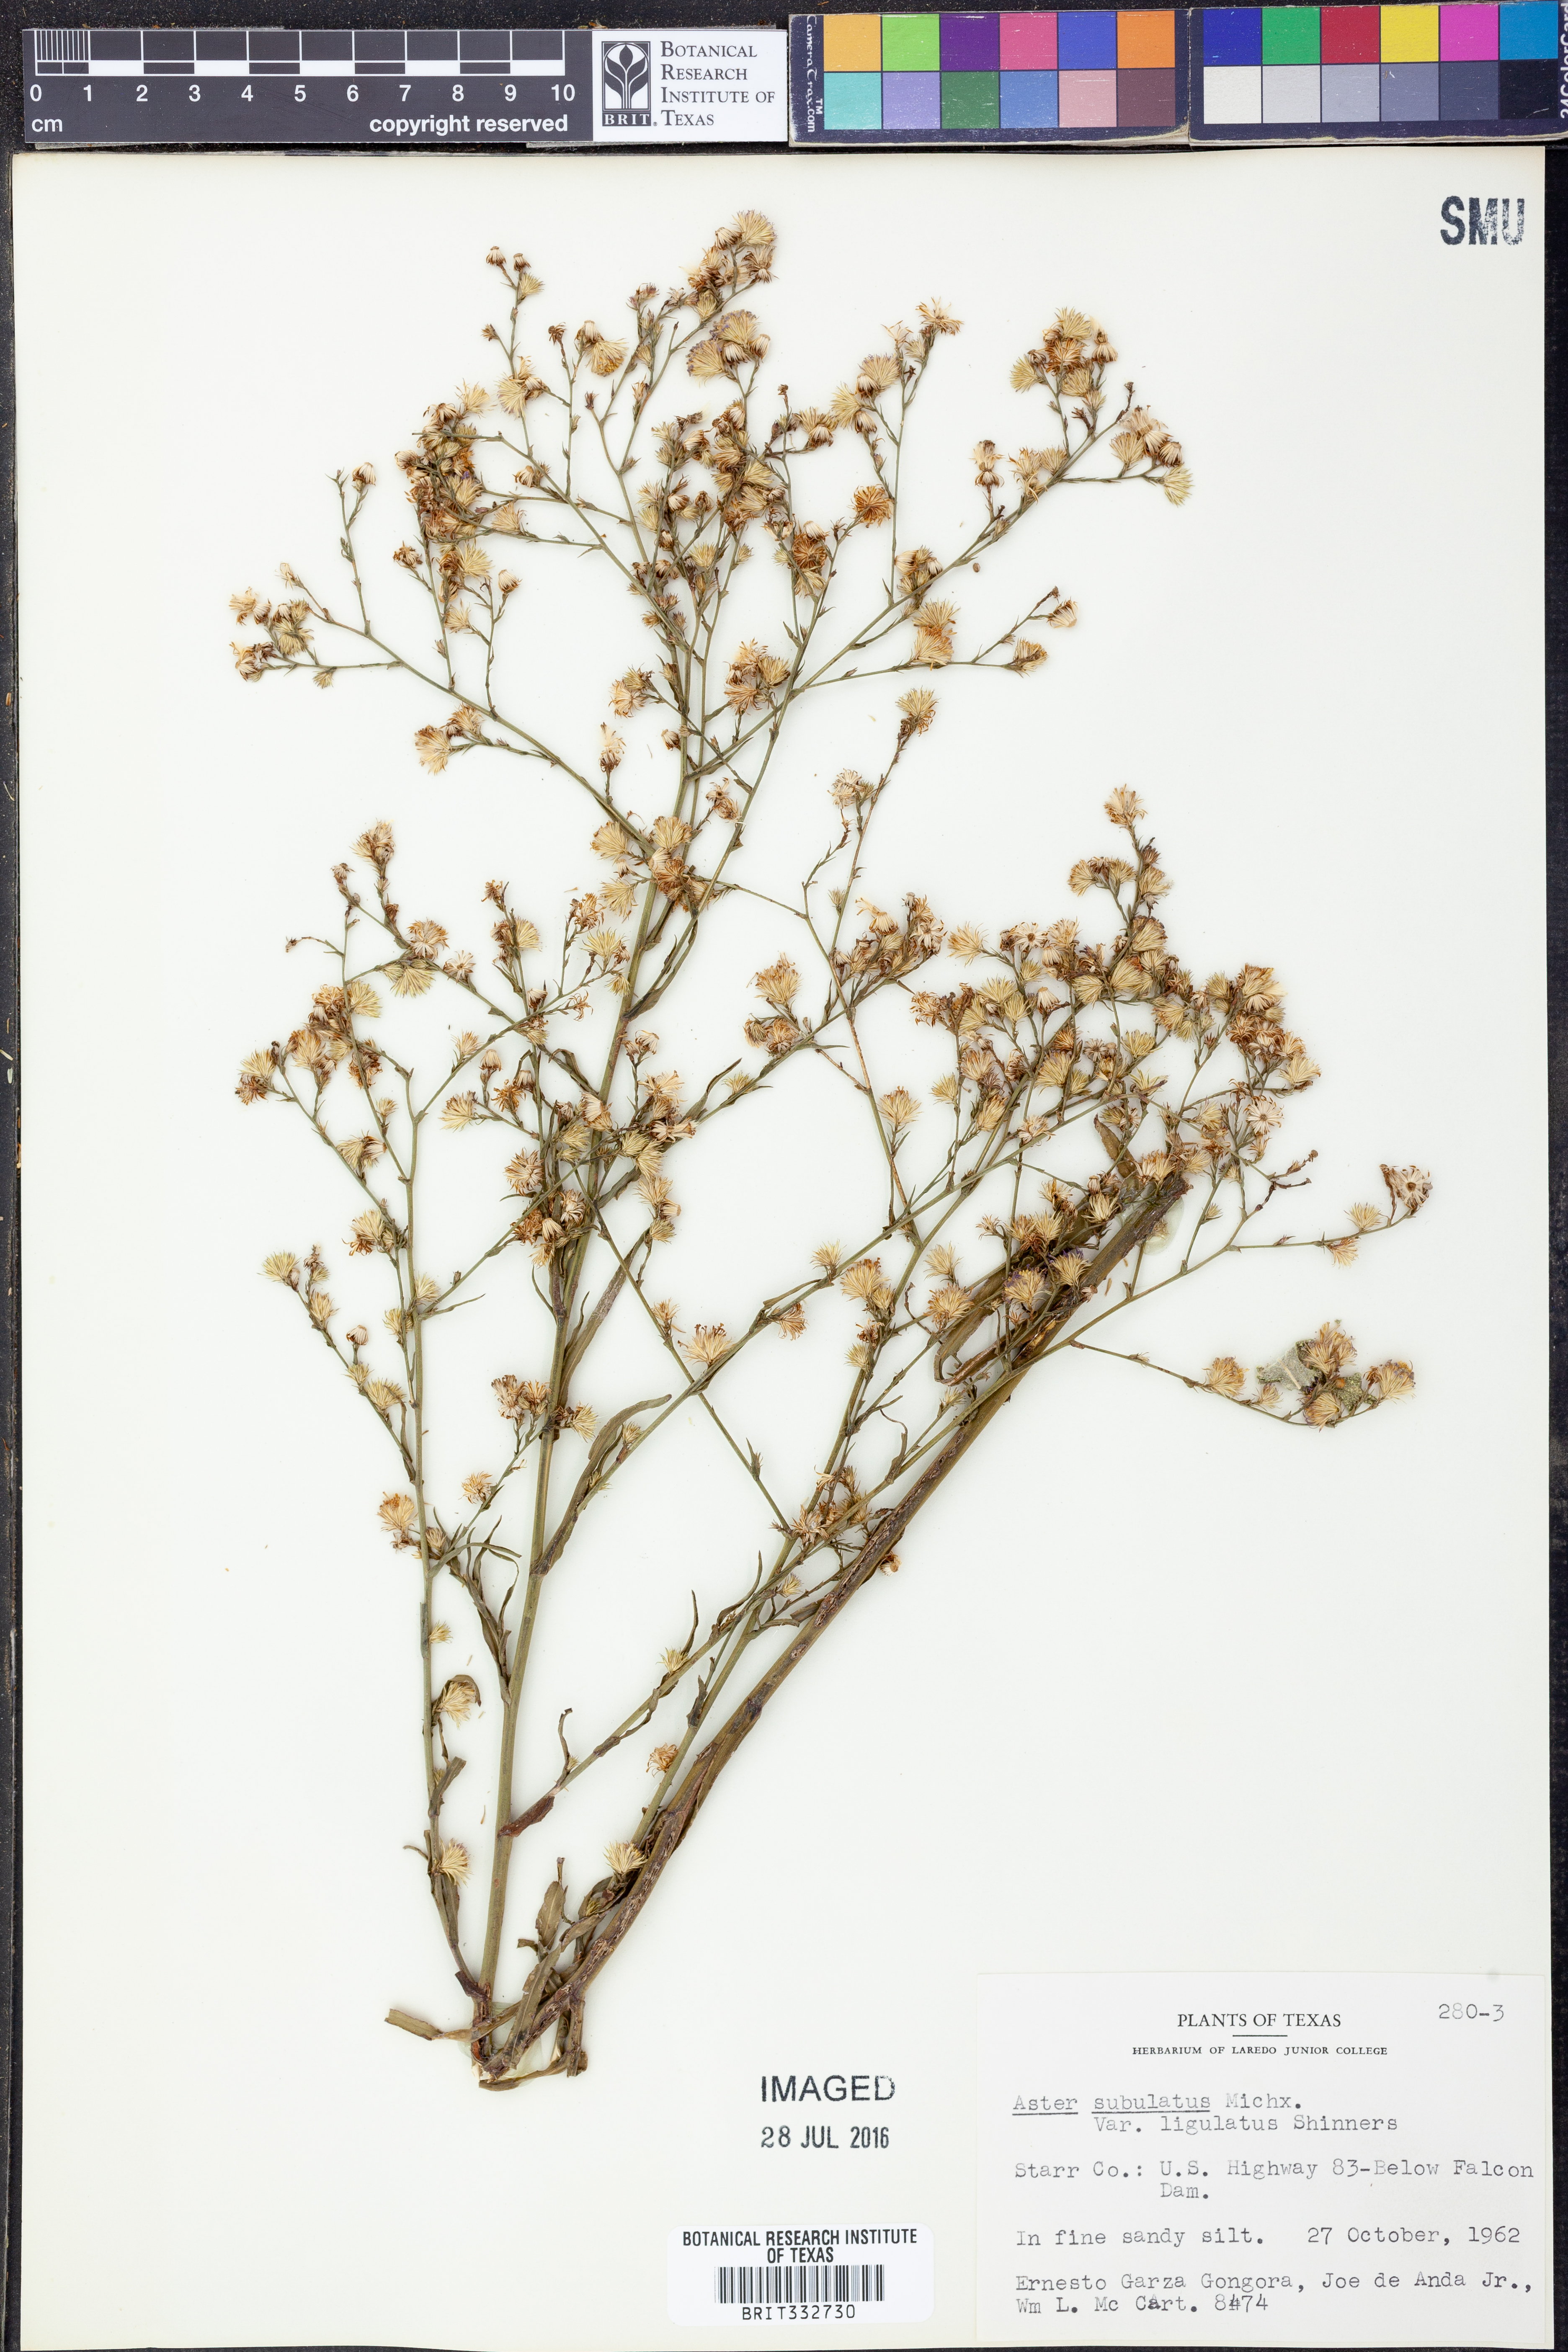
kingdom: Plantae
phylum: Tracheophyta
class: Magnoliopsida
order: Asterales
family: Asteraceae
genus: Symphyotrichum
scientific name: Symphyotrichum divaricatum
